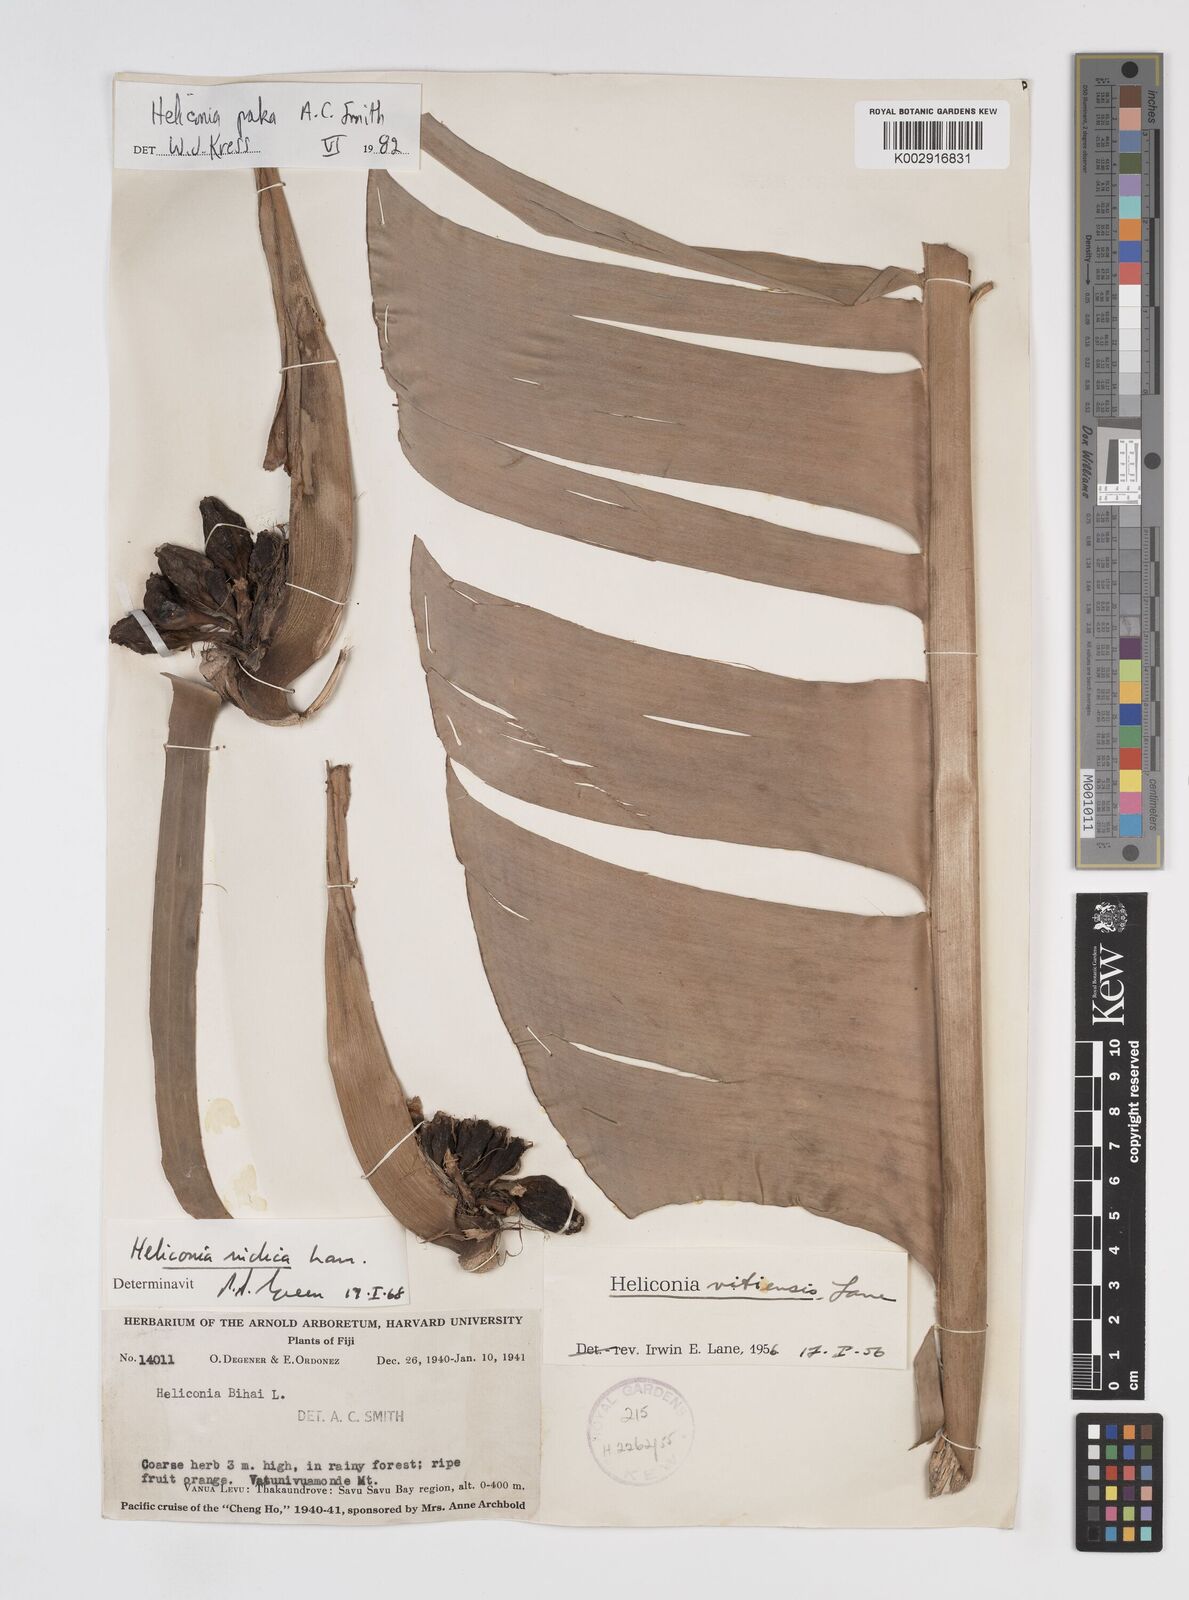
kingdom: Plantae
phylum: Tracheophyta
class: Liliopsida
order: Zingiberales
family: Heliconiaceae
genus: Heliconia
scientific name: Heliconia paka
